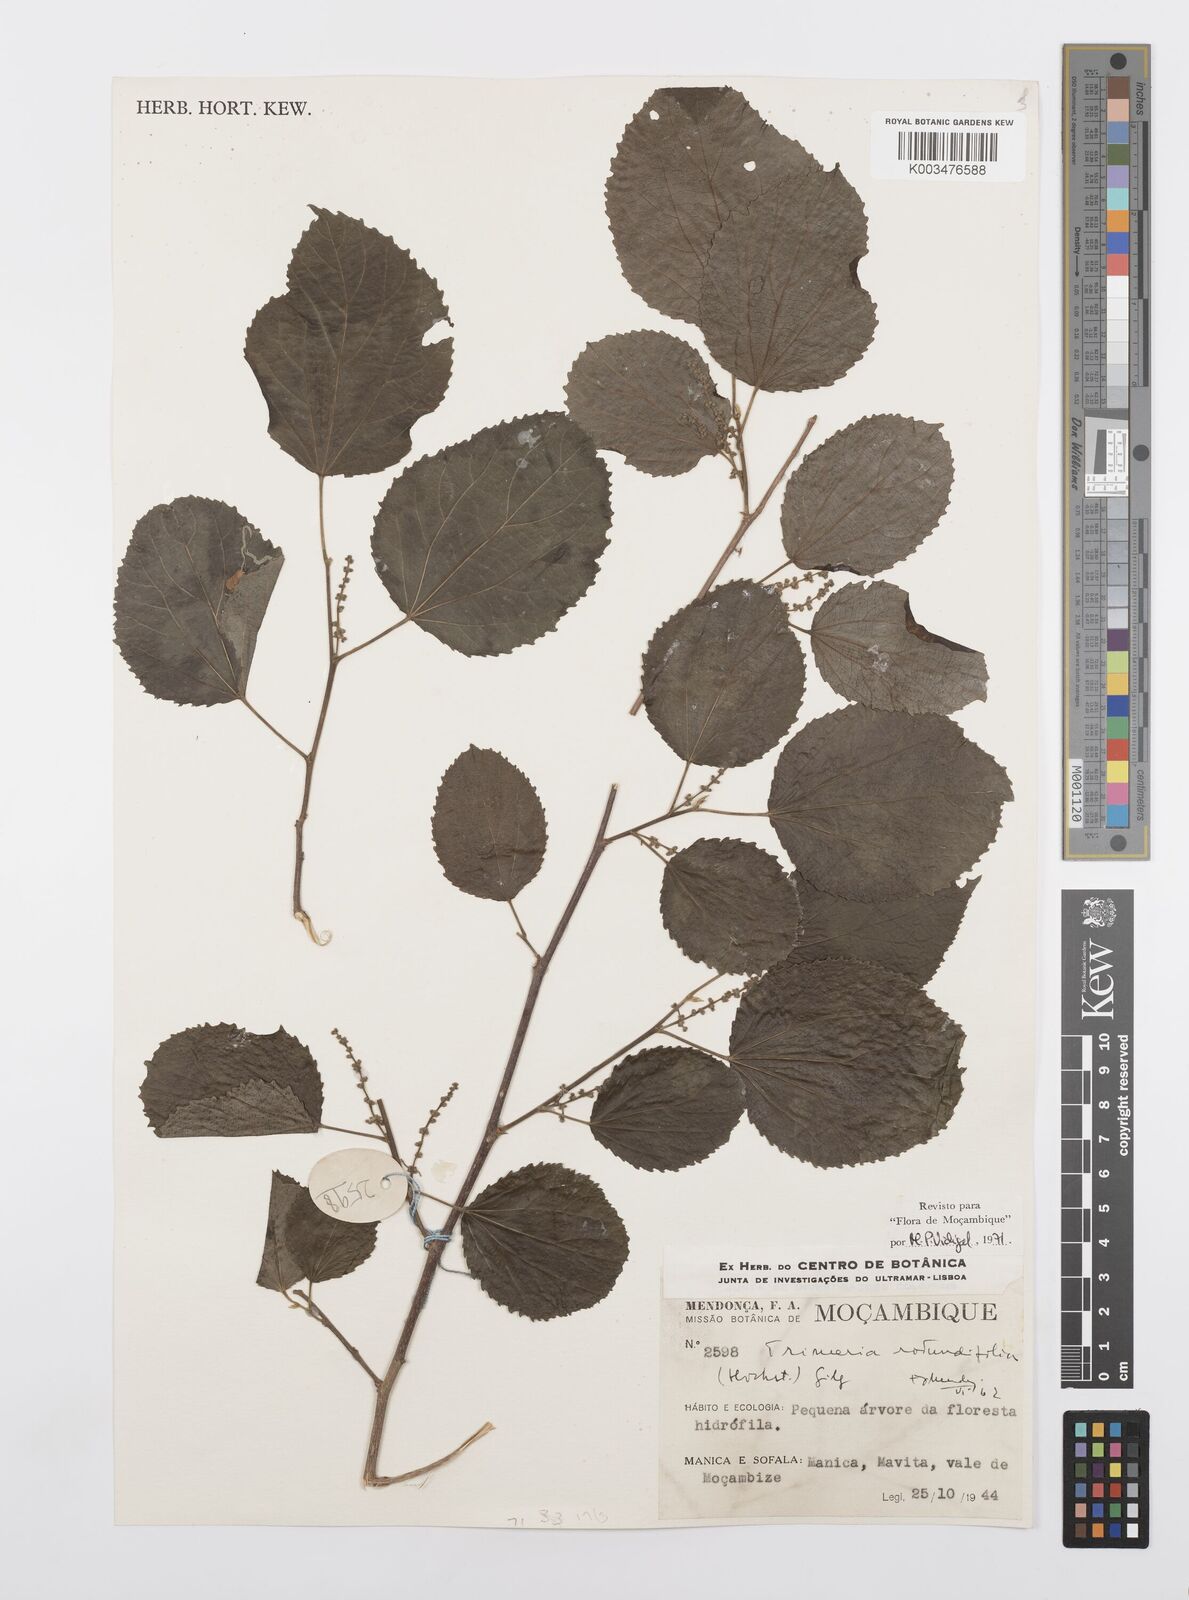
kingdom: Plantae
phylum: Tracheophyta
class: Magnoliopsida
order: Malpighiales
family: Salicaceae
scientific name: Salicaceae
